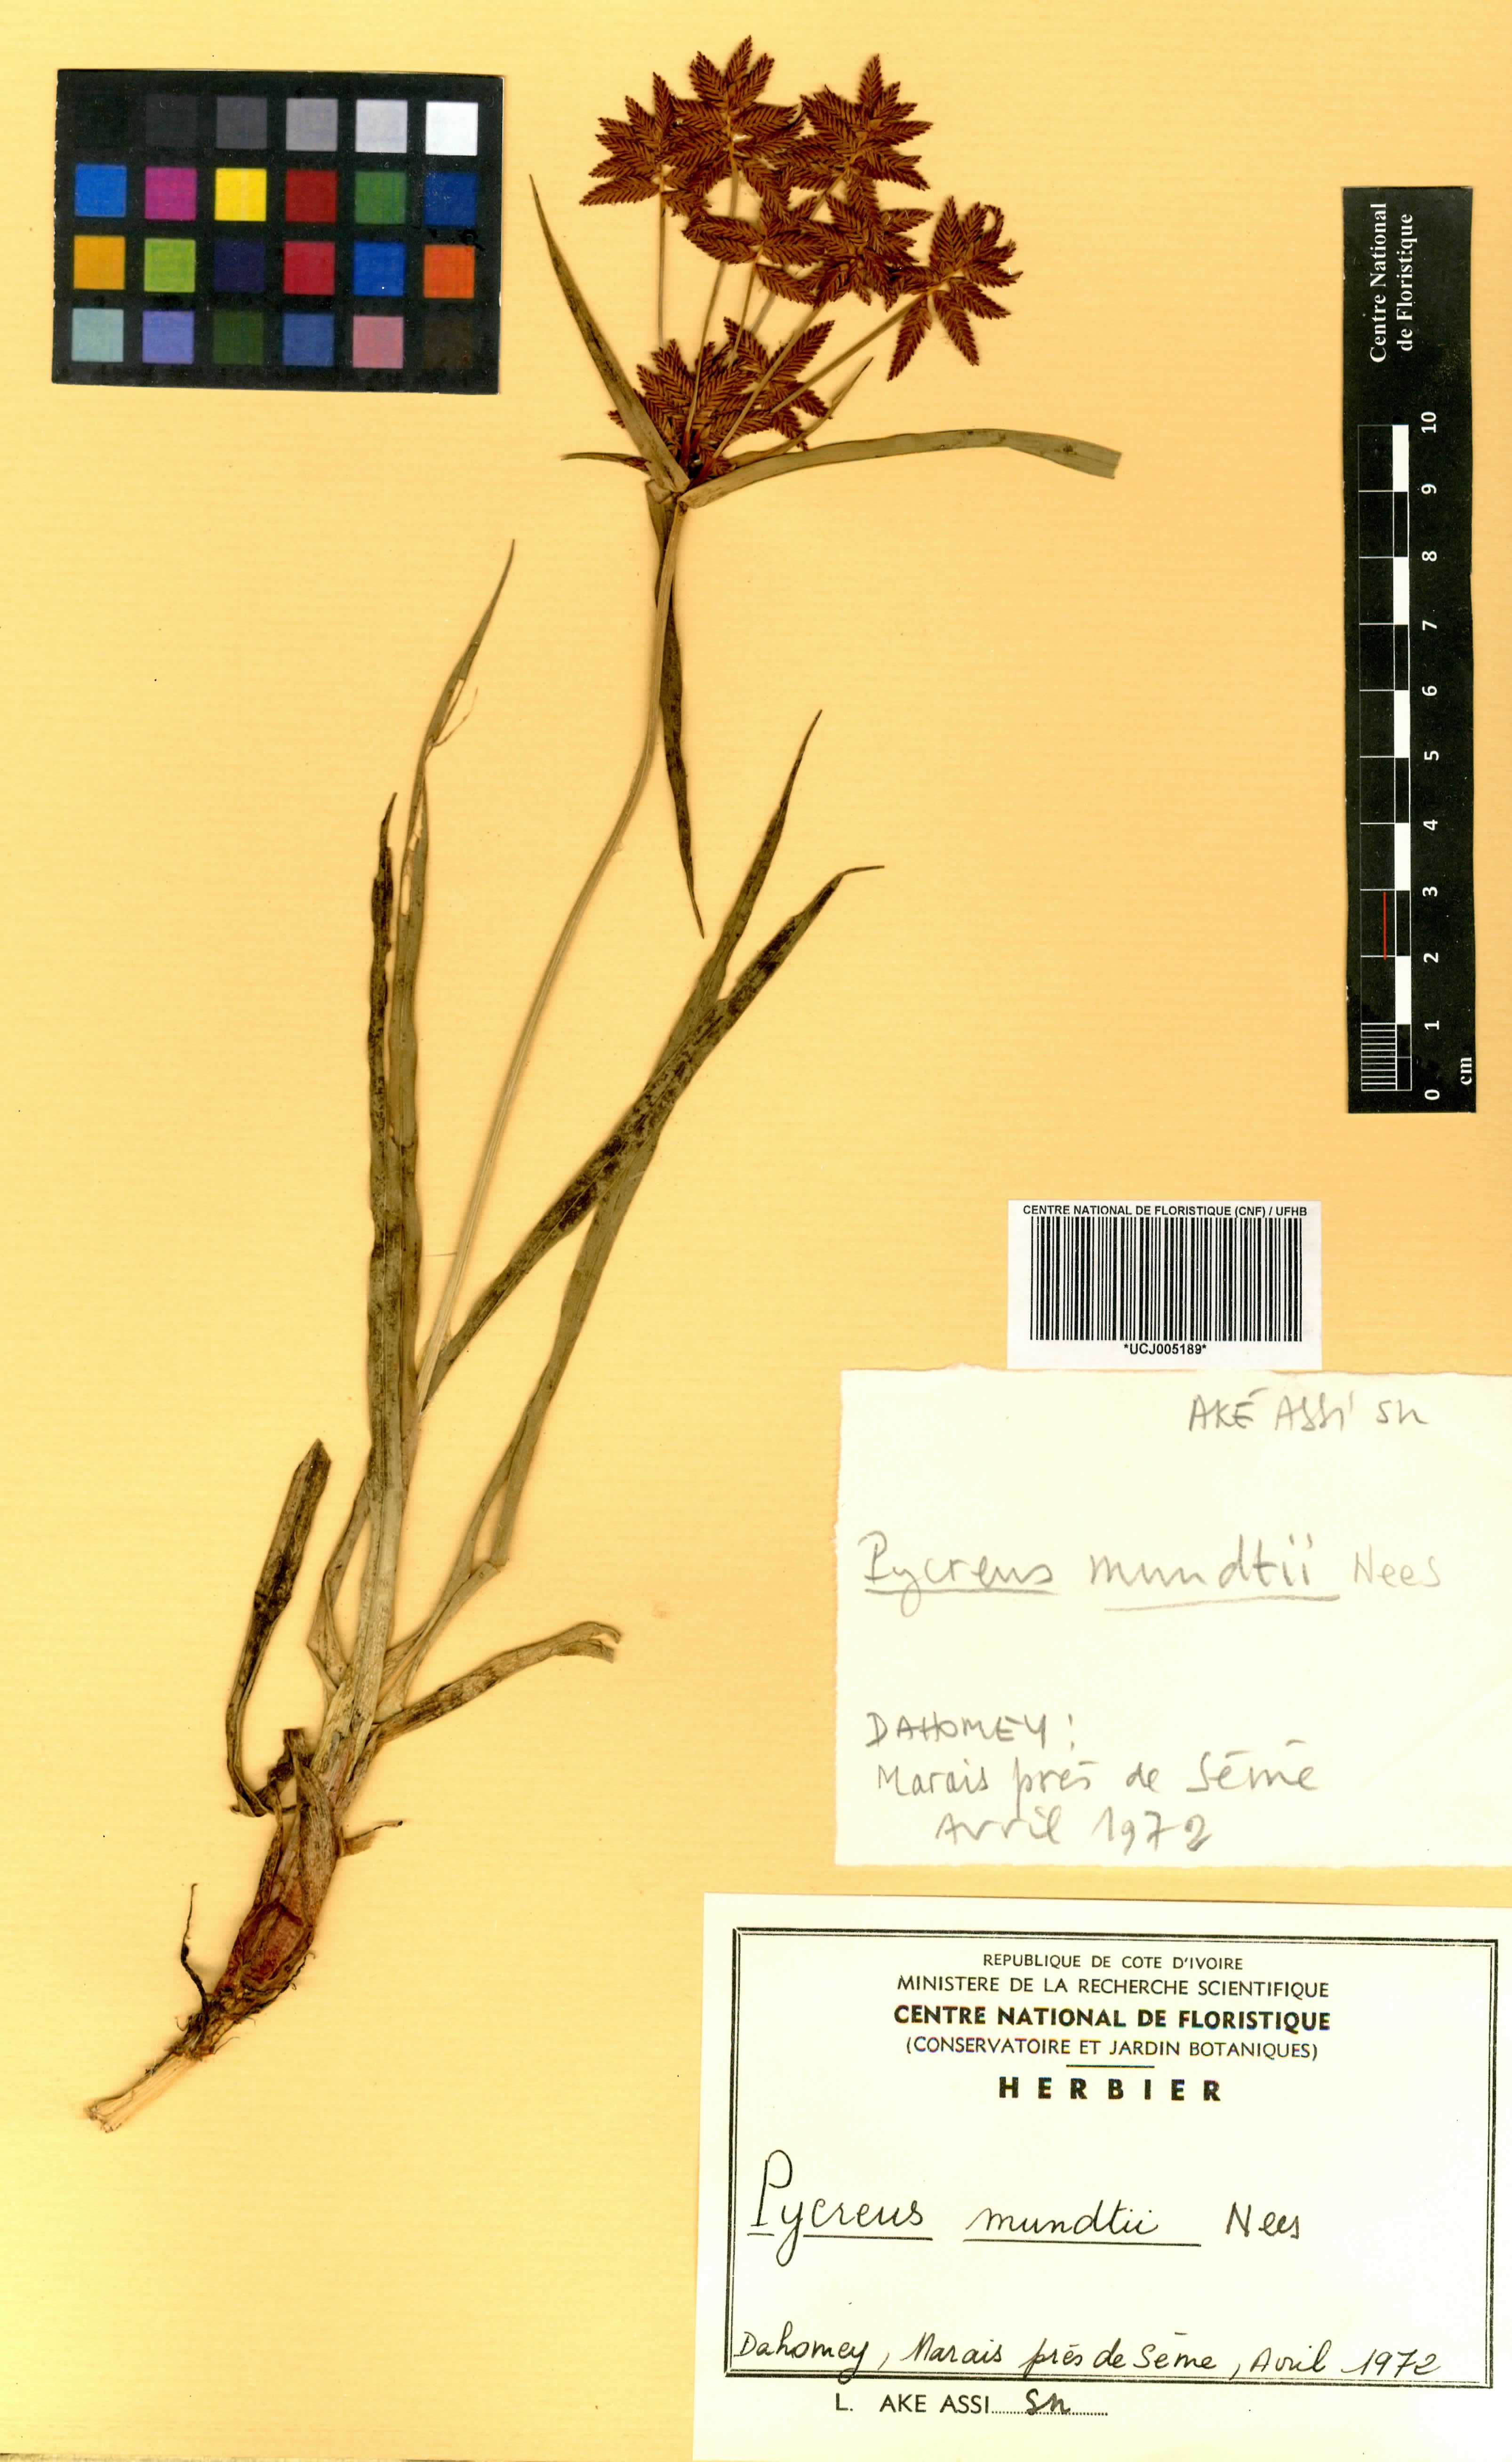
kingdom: Plantae
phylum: Tracheophyta
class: Liliopsida
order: Poales
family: Cyperaceae
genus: Cyperus
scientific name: Cyperus mundii
